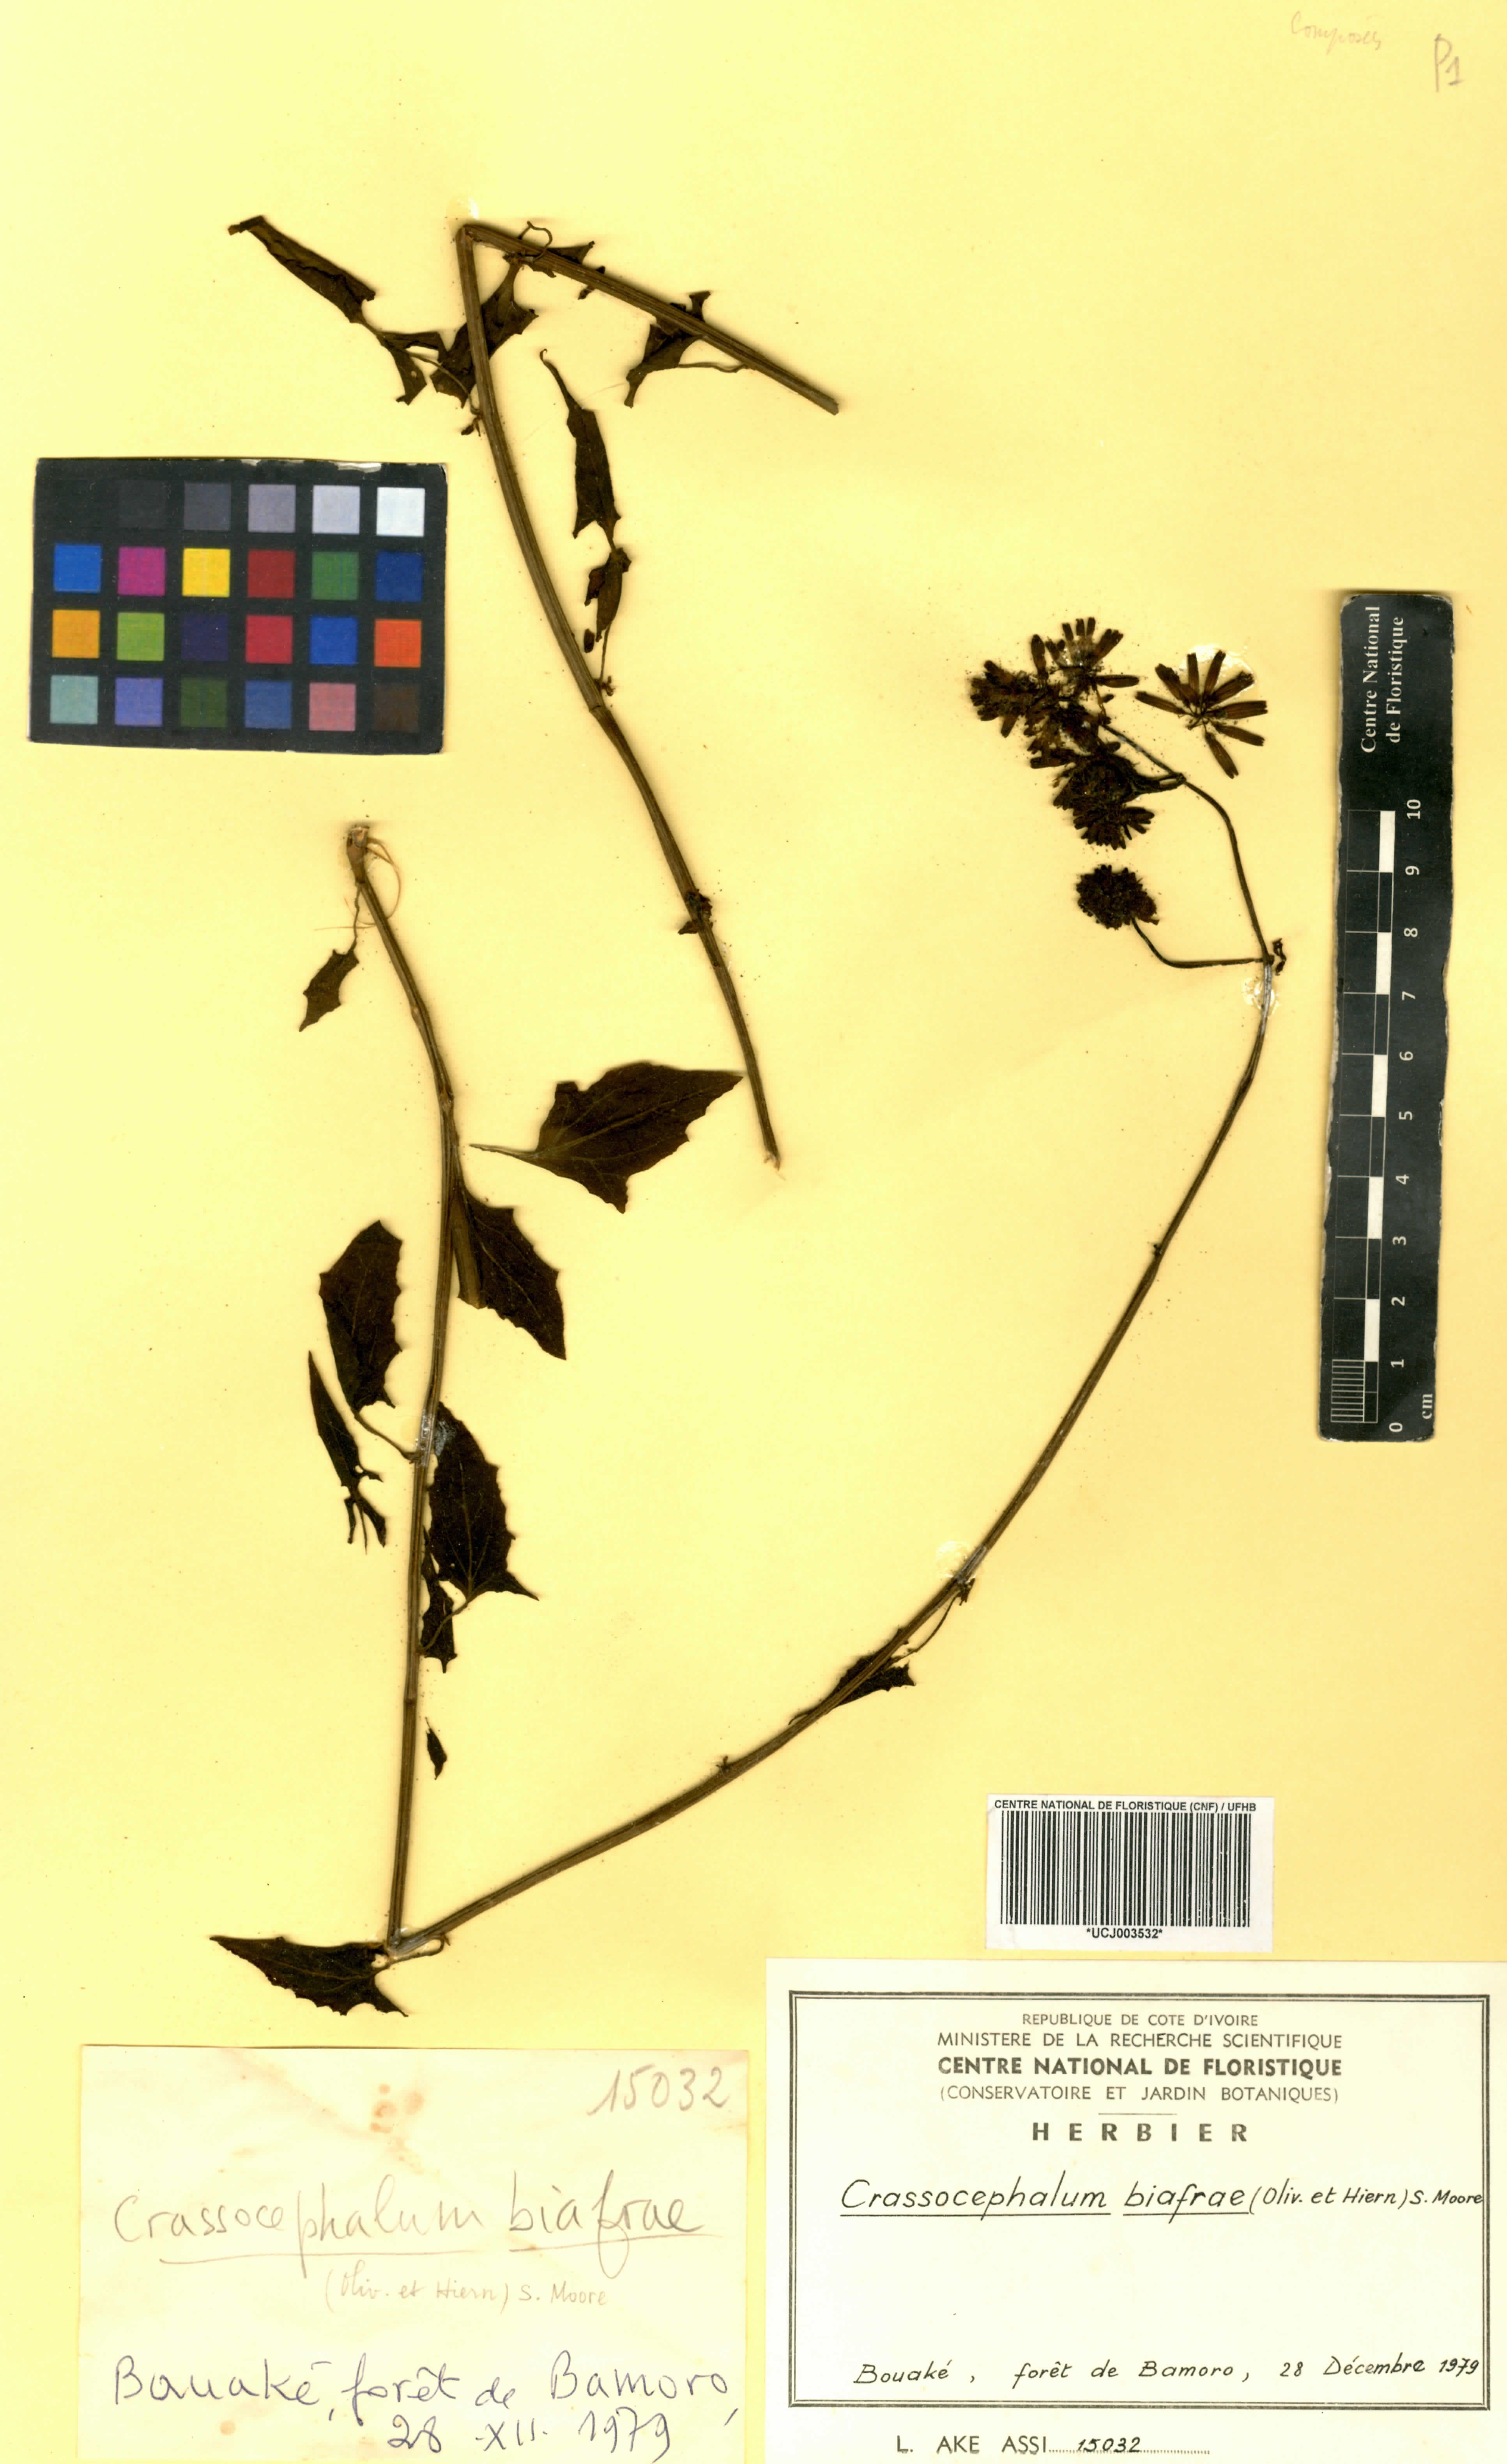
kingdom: Plantae
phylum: Tracheophyta
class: Magnoliopsida
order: Asterales
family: Asteraceae
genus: Solanecio
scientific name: Solanecio biafrae
